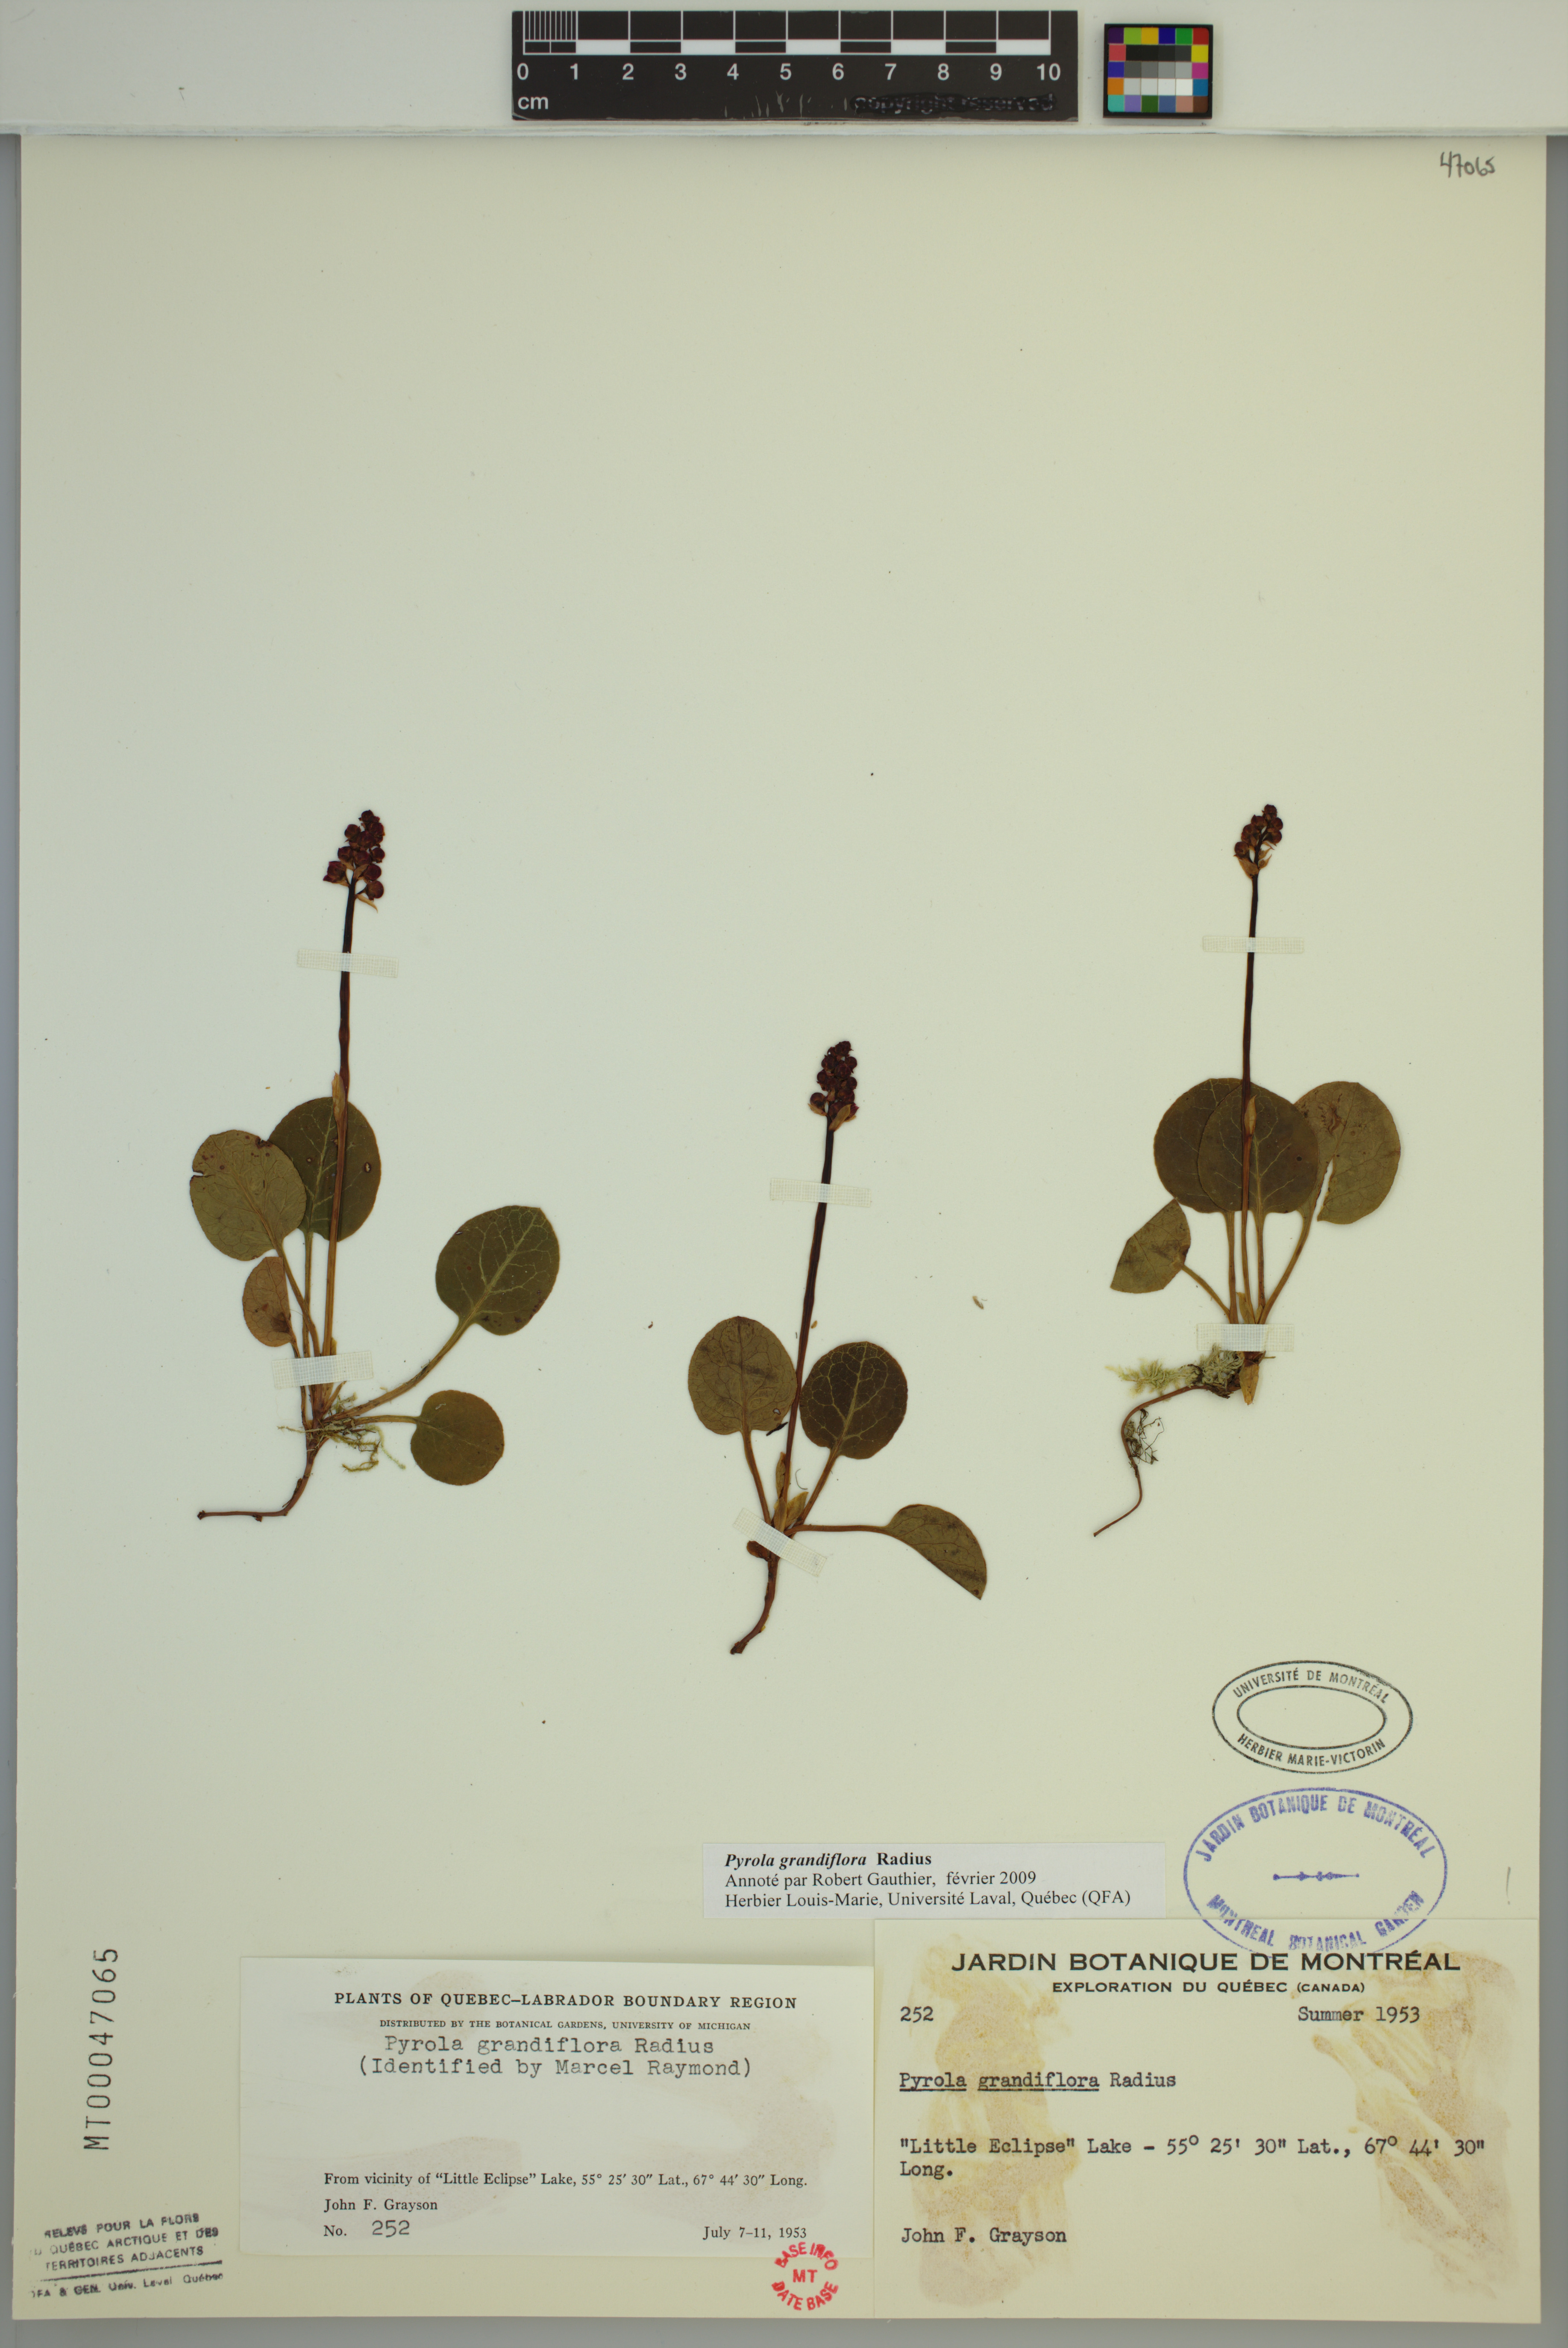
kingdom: Plantae
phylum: Tracheophyta
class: Magnoliopsida
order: Ericales
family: Ericaceae
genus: Pyrola
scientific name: Pyrola grandiflora
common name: Arctic pyrola
